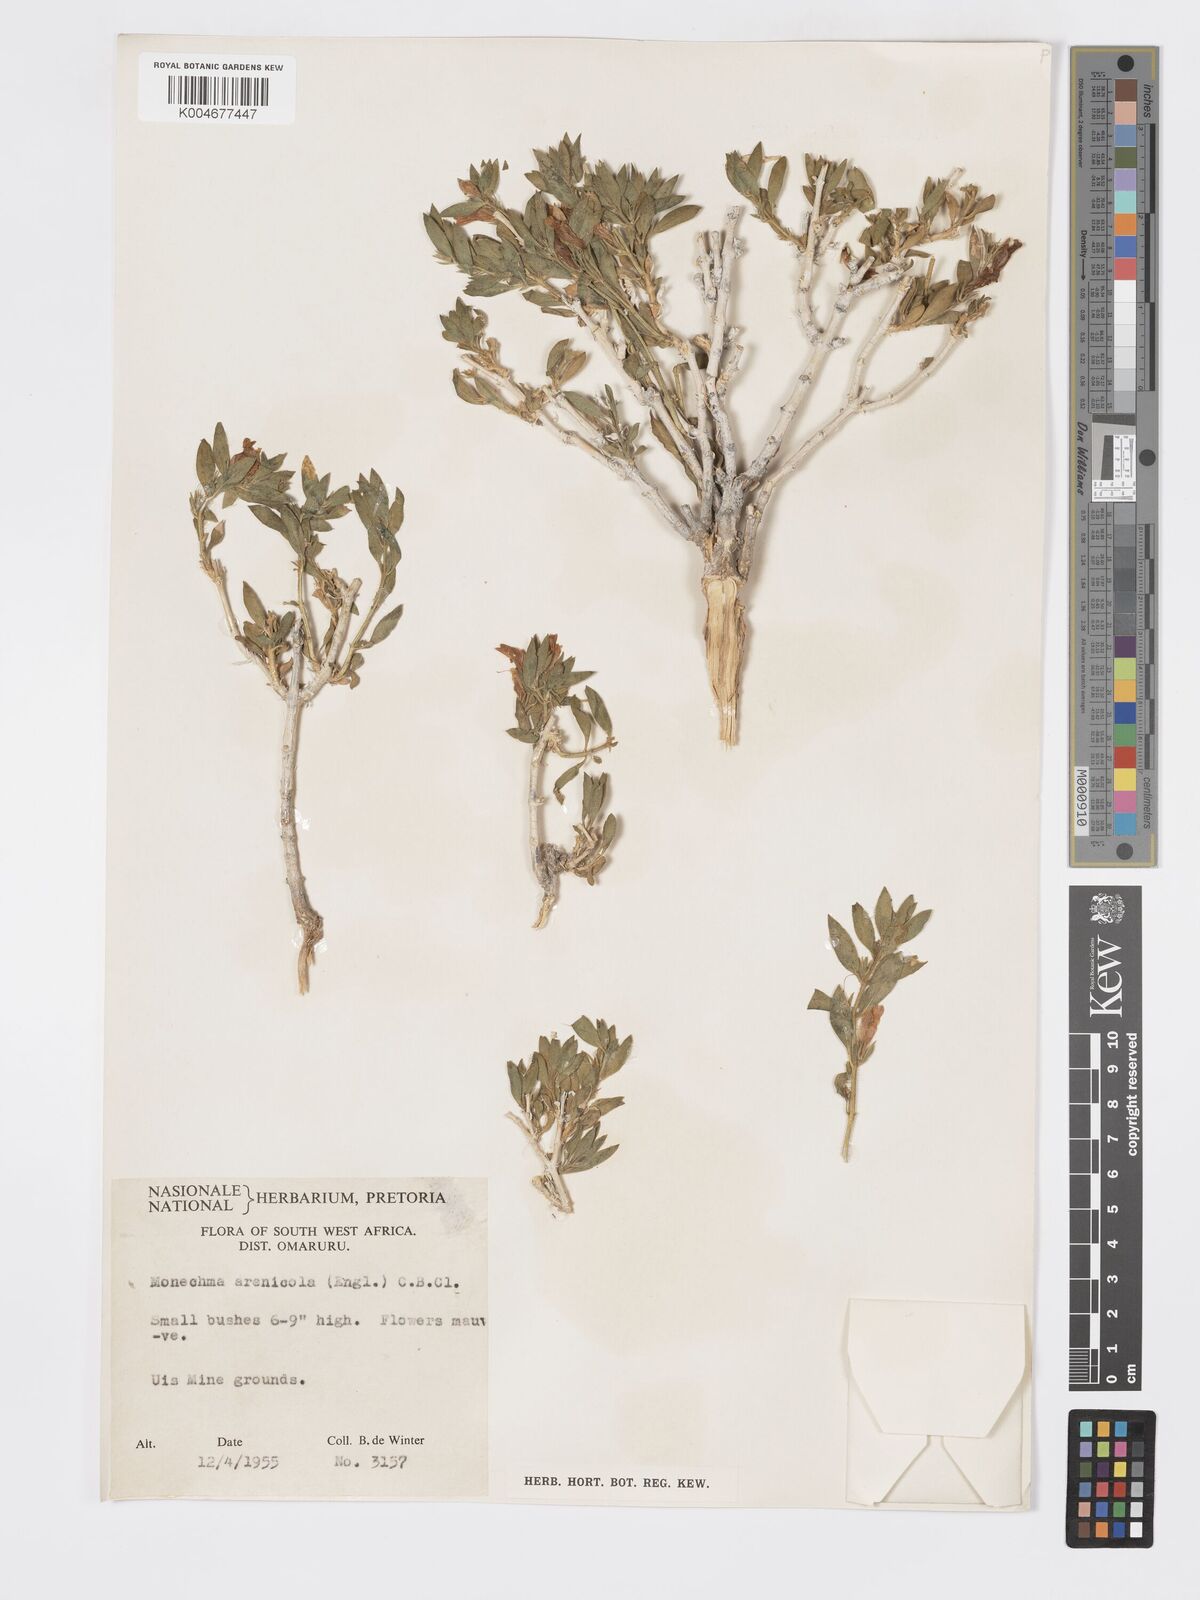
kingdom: Plantae
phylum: Tracheophyta
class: Magnoliopsida
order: Lamiales
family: Acanthaceae
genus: Pogonospermum
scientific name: Pogonospermum
